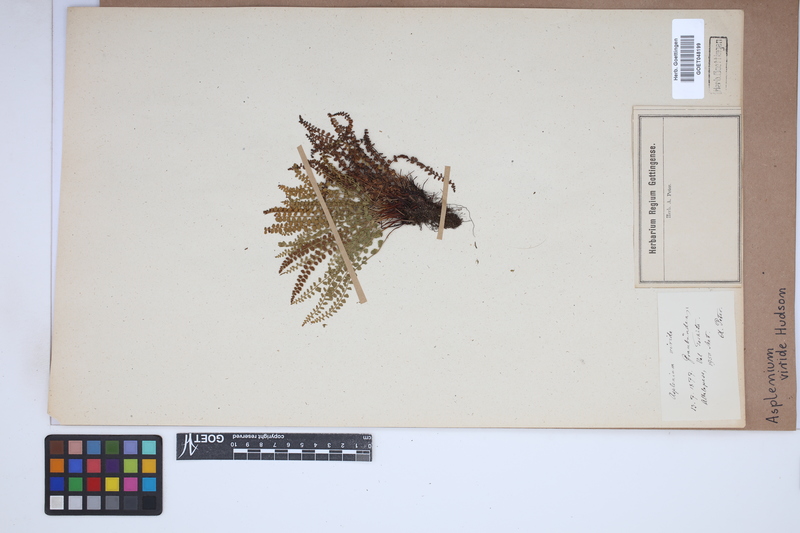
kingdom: Plantae
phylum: Tracheophyta
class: Polypodiopsida
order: Polypodiales
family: Aspleniaceae
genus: Asplenium
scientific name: Asplenium viride
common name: Green spleenwort
